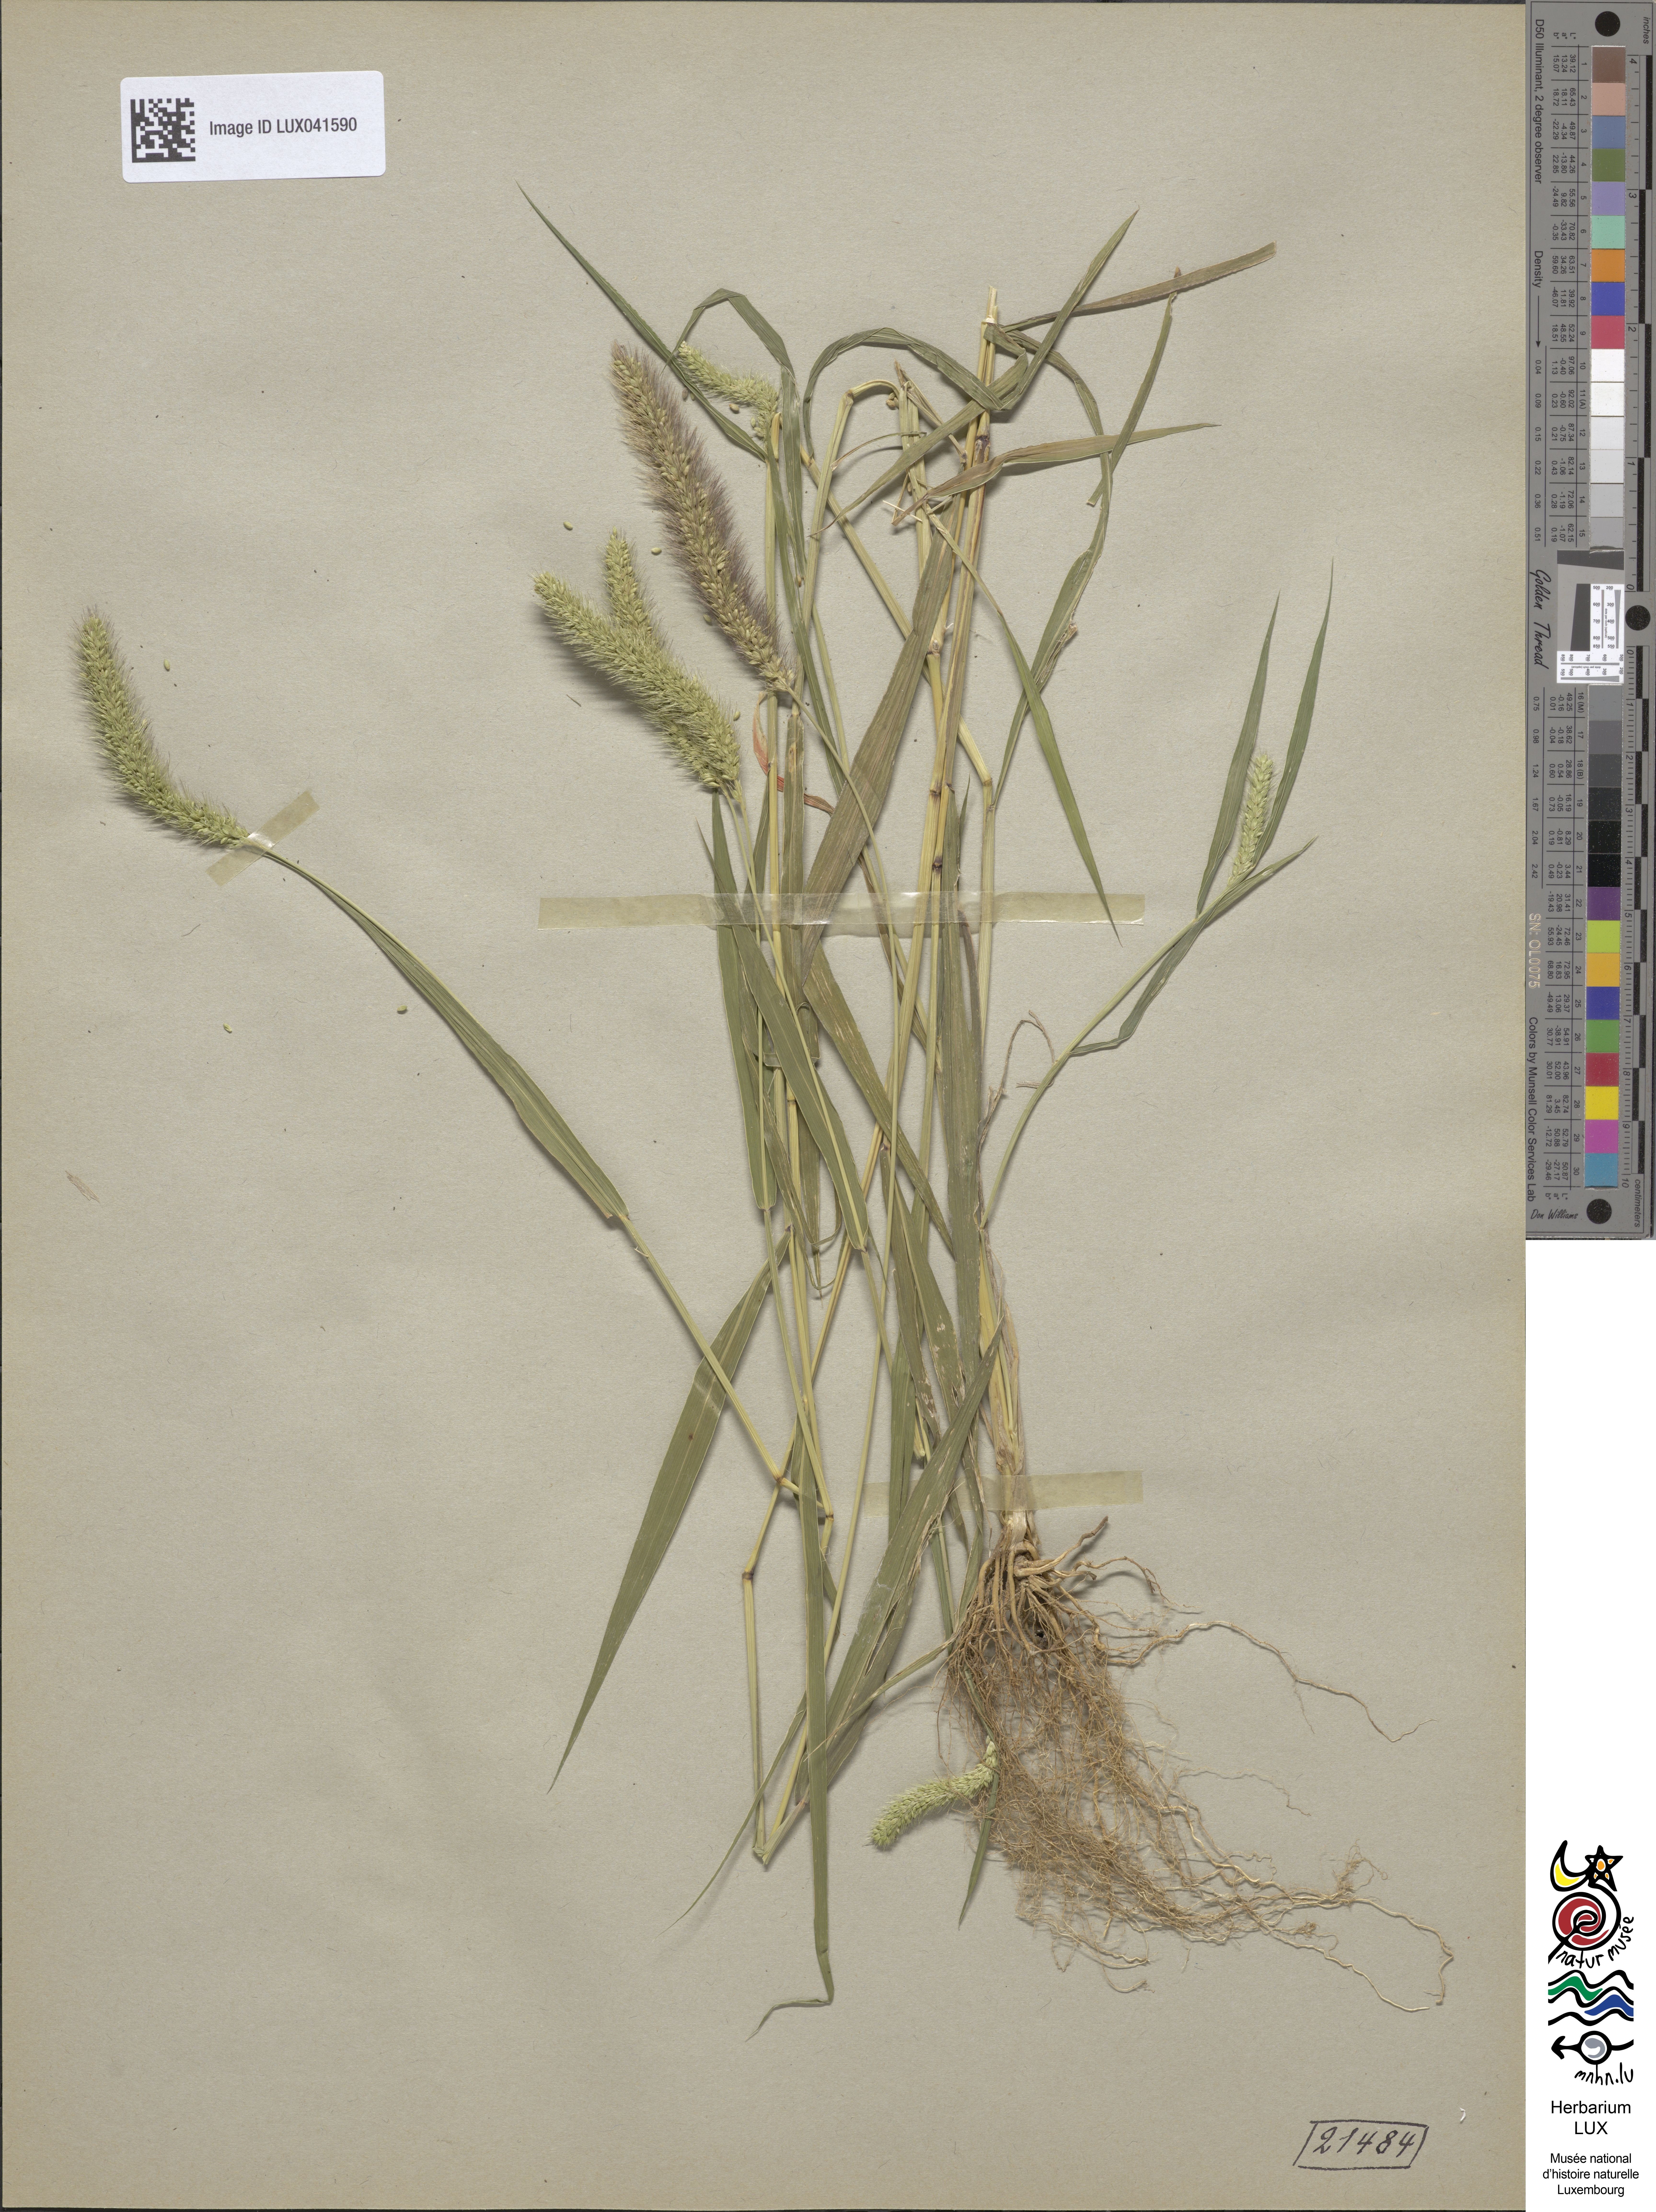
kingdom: Plantae
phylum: Tracheophyta
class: Liliopsida
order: Poales
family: Poaceae
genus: Setaria
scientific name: Setaria viridis
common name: Green bristlegrass
